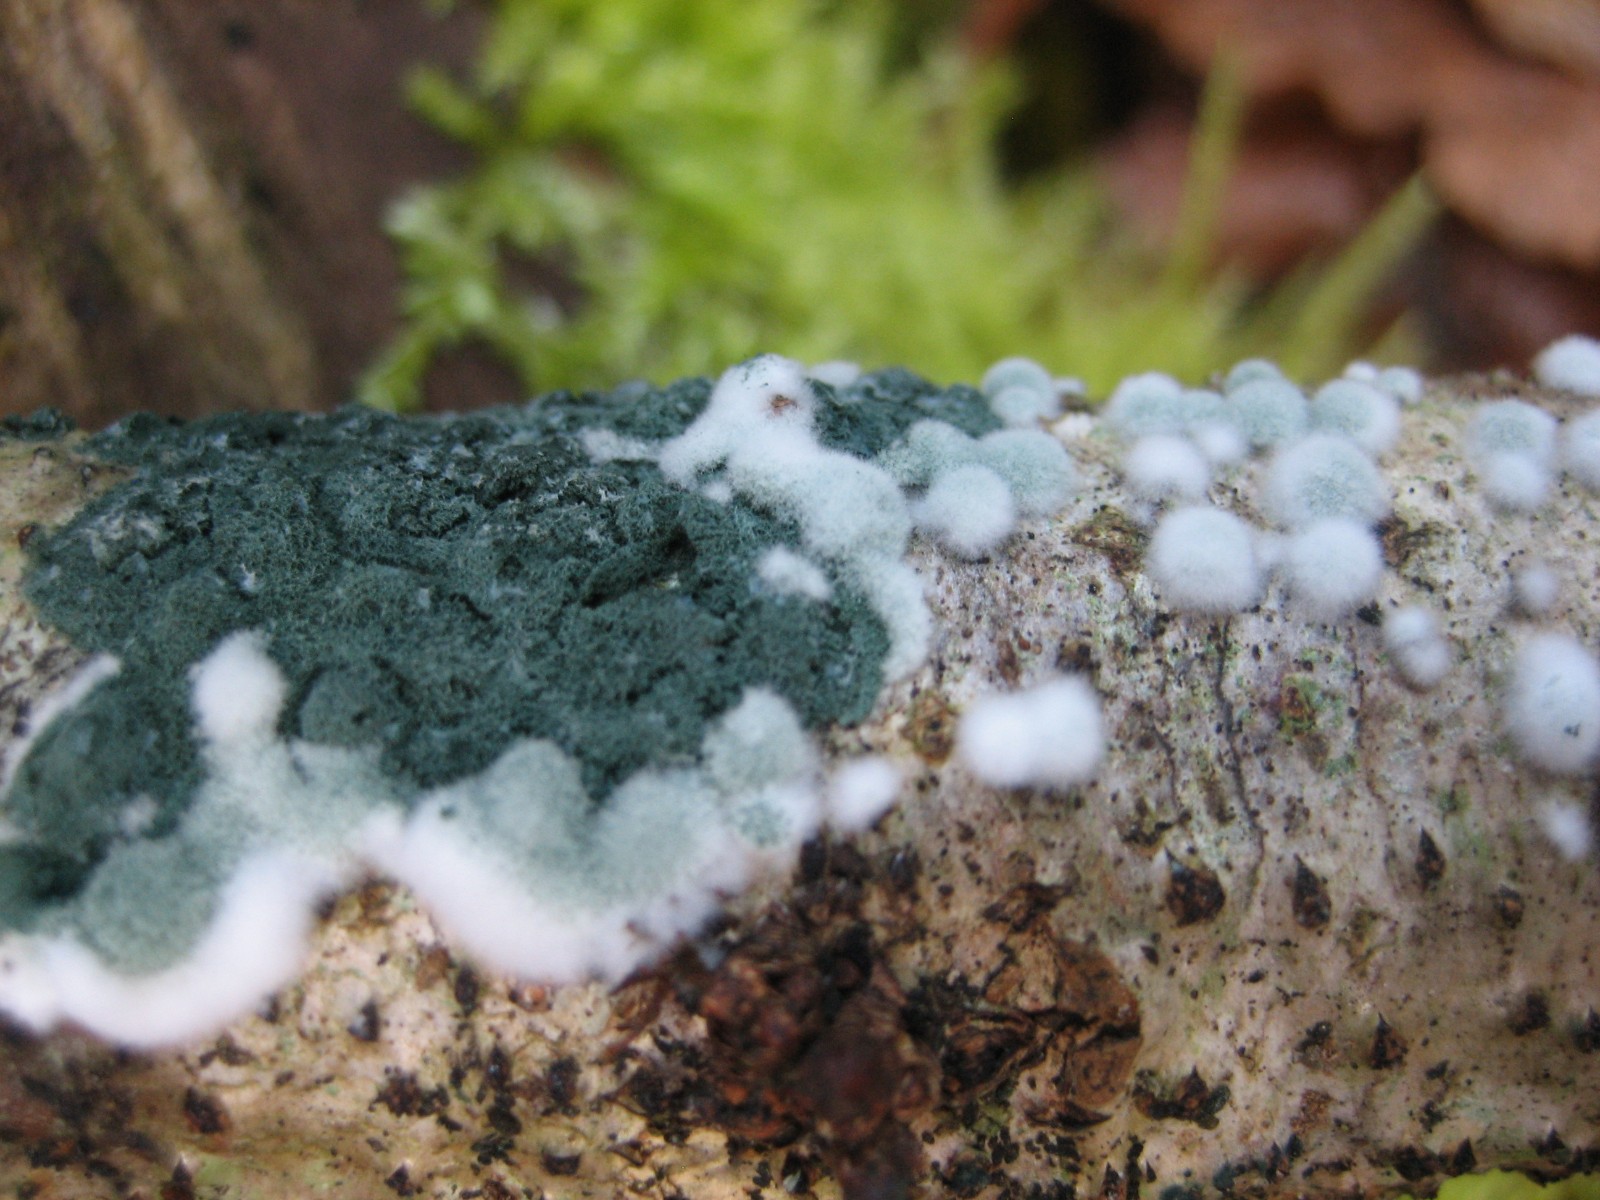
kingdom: Fungi
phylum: Ascomycota
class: Sordariomycetes
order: Hypocreales
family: Hypocreaceae
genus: Trichoderma
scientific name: Trichoderma
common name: kødkerne
